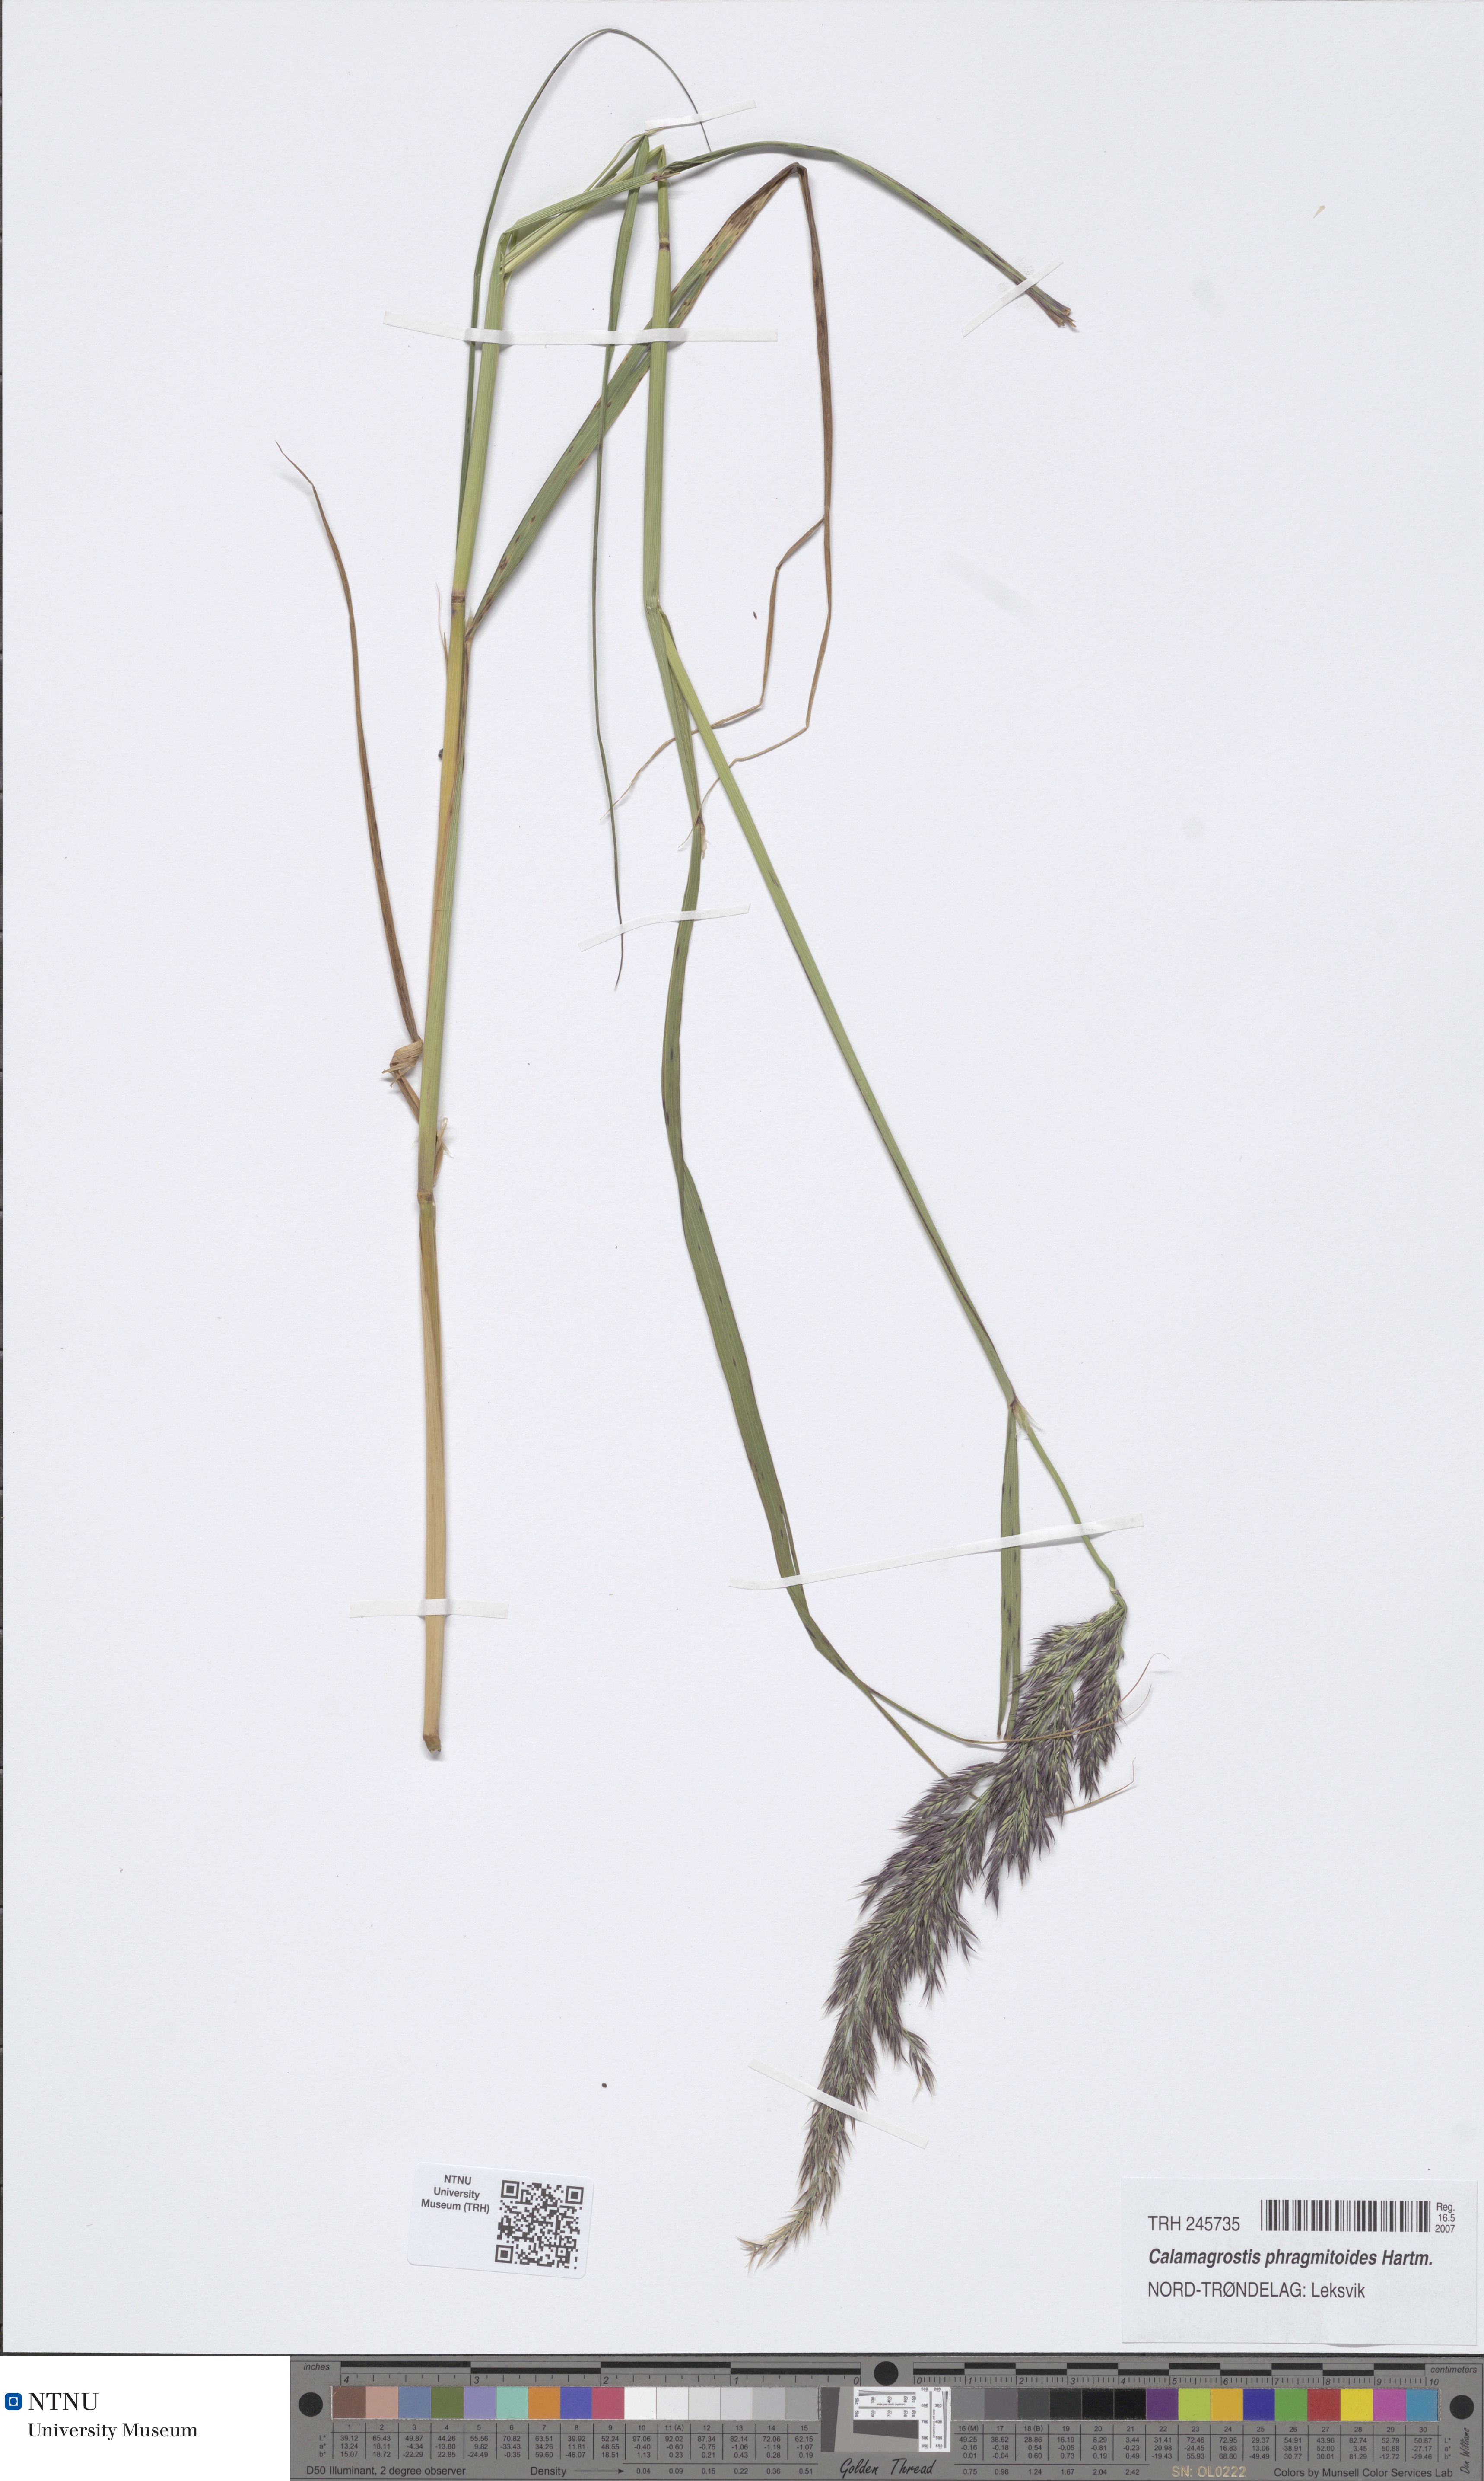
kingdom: Plantae
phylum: Tracheophyta
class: Liliopsida
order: Poales
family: Poaceae
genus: Calamagrostis
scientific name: Calamagrostis purpurea
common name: Scandinavian small-reed
